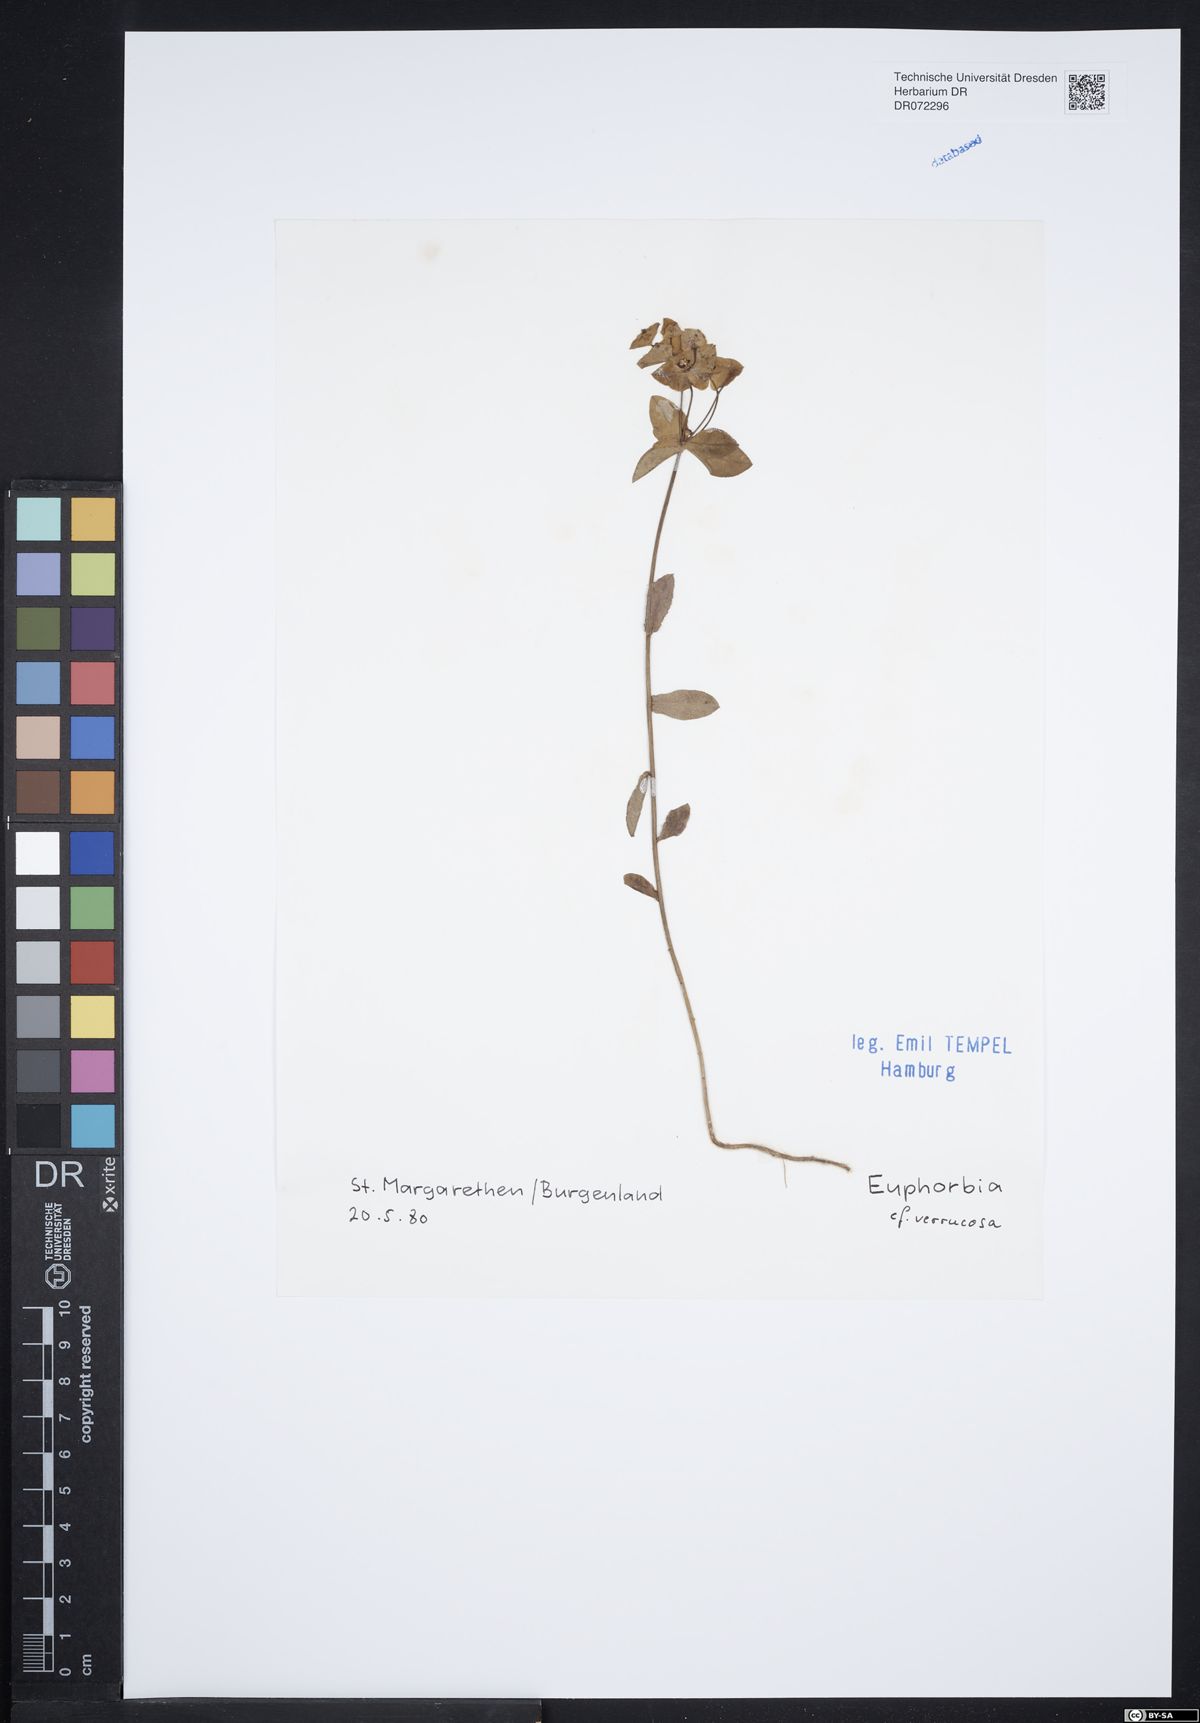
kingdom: Plantae
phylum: Tracheophyta
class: Magnoliopsida
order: Malpighiales
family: Euphorbiaceae
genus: Euphorbia
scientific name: Euphorbia verrucosa
